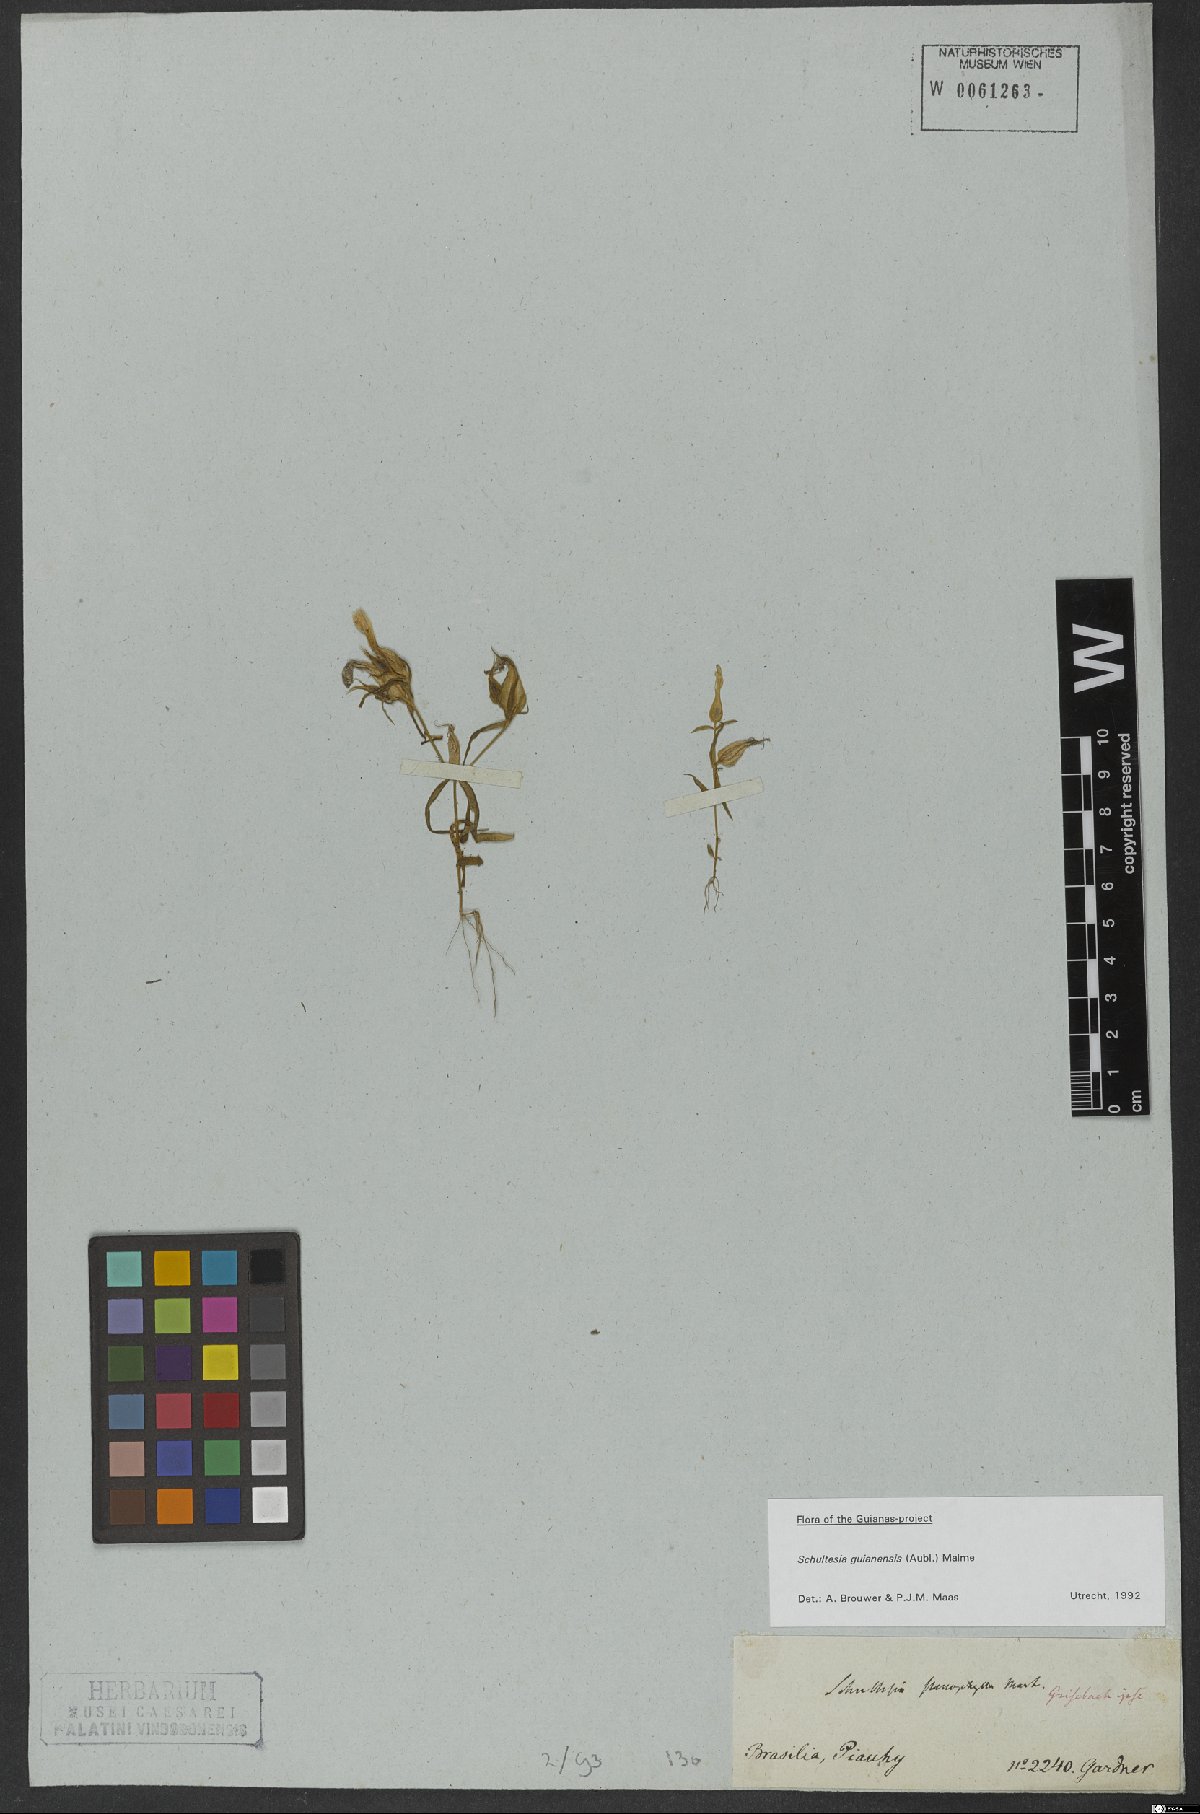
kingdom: Plantae
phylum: Tracheophyta
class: Magnoliopsida
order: Gentianales
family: Gentianaceae
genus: Schultesia
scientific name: Schultesia guianensis
